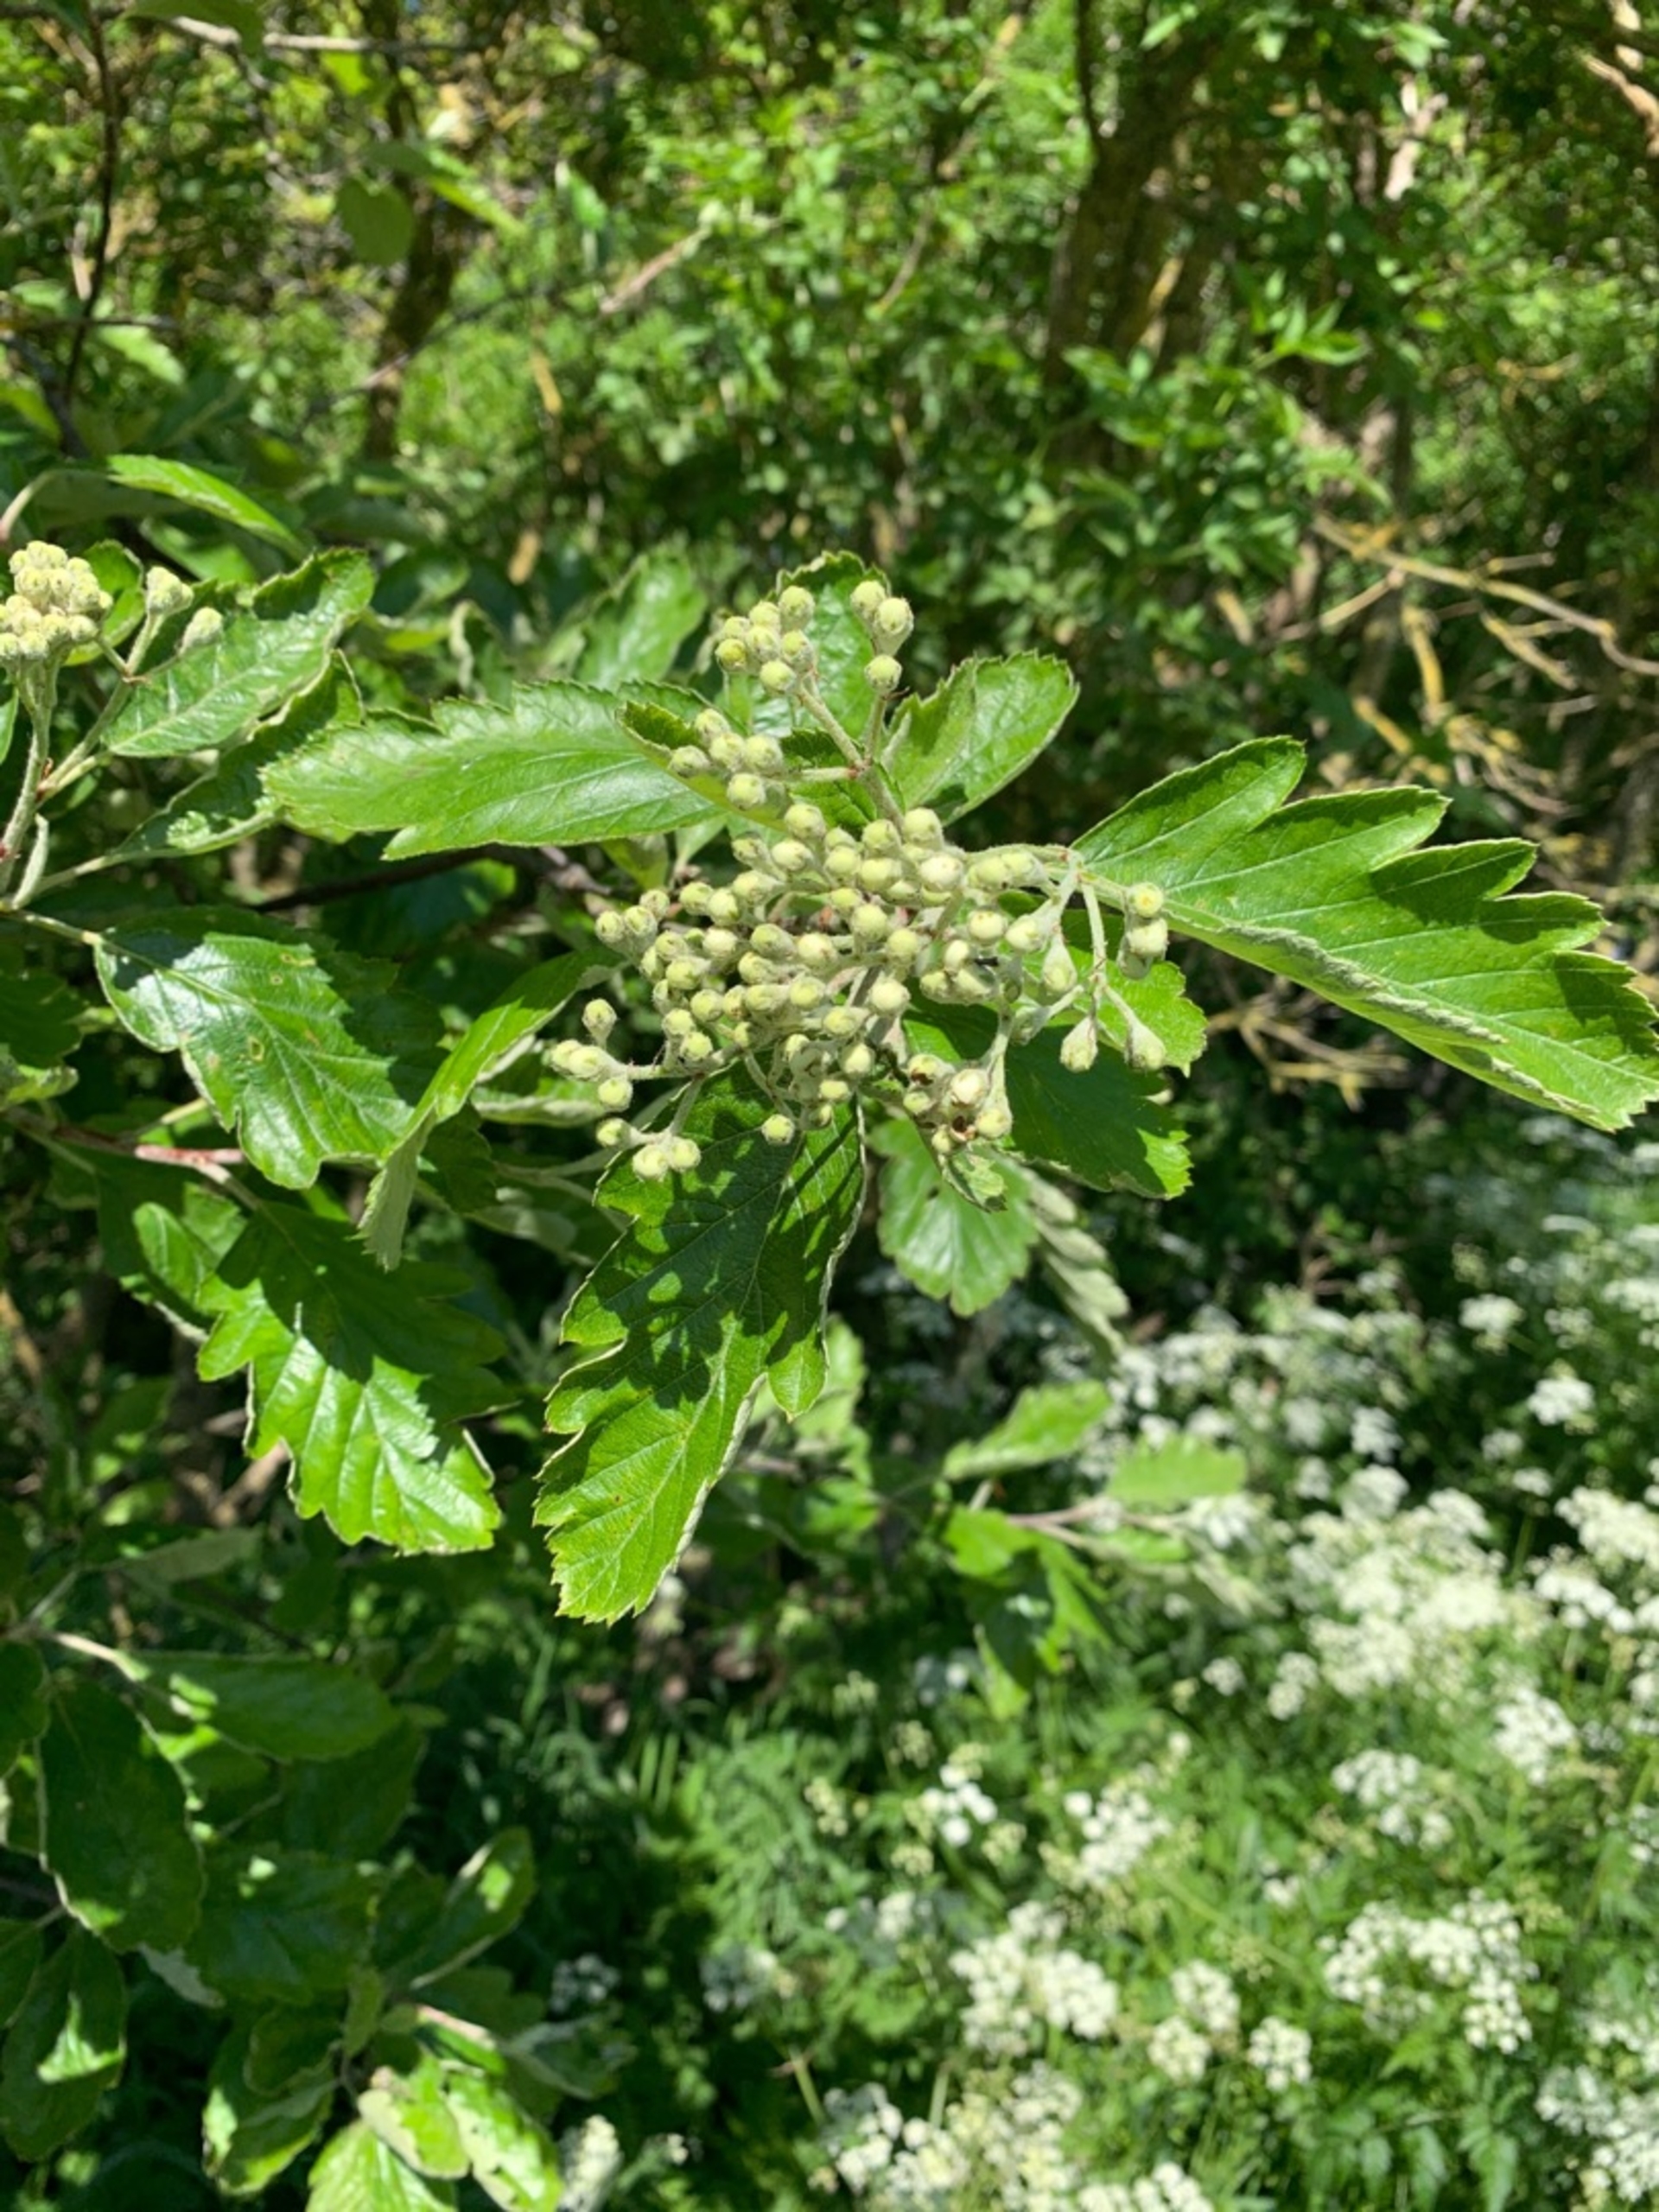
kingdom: Plantae
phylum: Tracheophyta
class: Magnoliopsida
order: Rosales
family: Rosaceae
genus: Scandosorbus
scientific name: Scandosorbus intermedia
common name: Selje-røn
